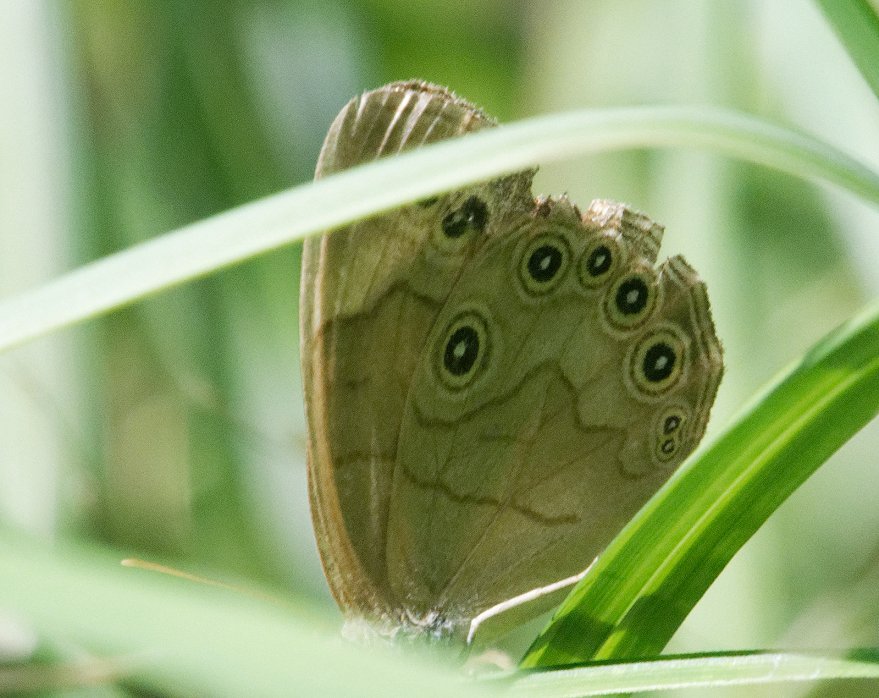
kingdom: Animalia
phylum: Arthropoda
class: Insecta
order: Lepidoptera
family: Nymphalidae
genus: Lethe
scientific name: Lethe eurydice
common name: Appalachian Eyed Brown
